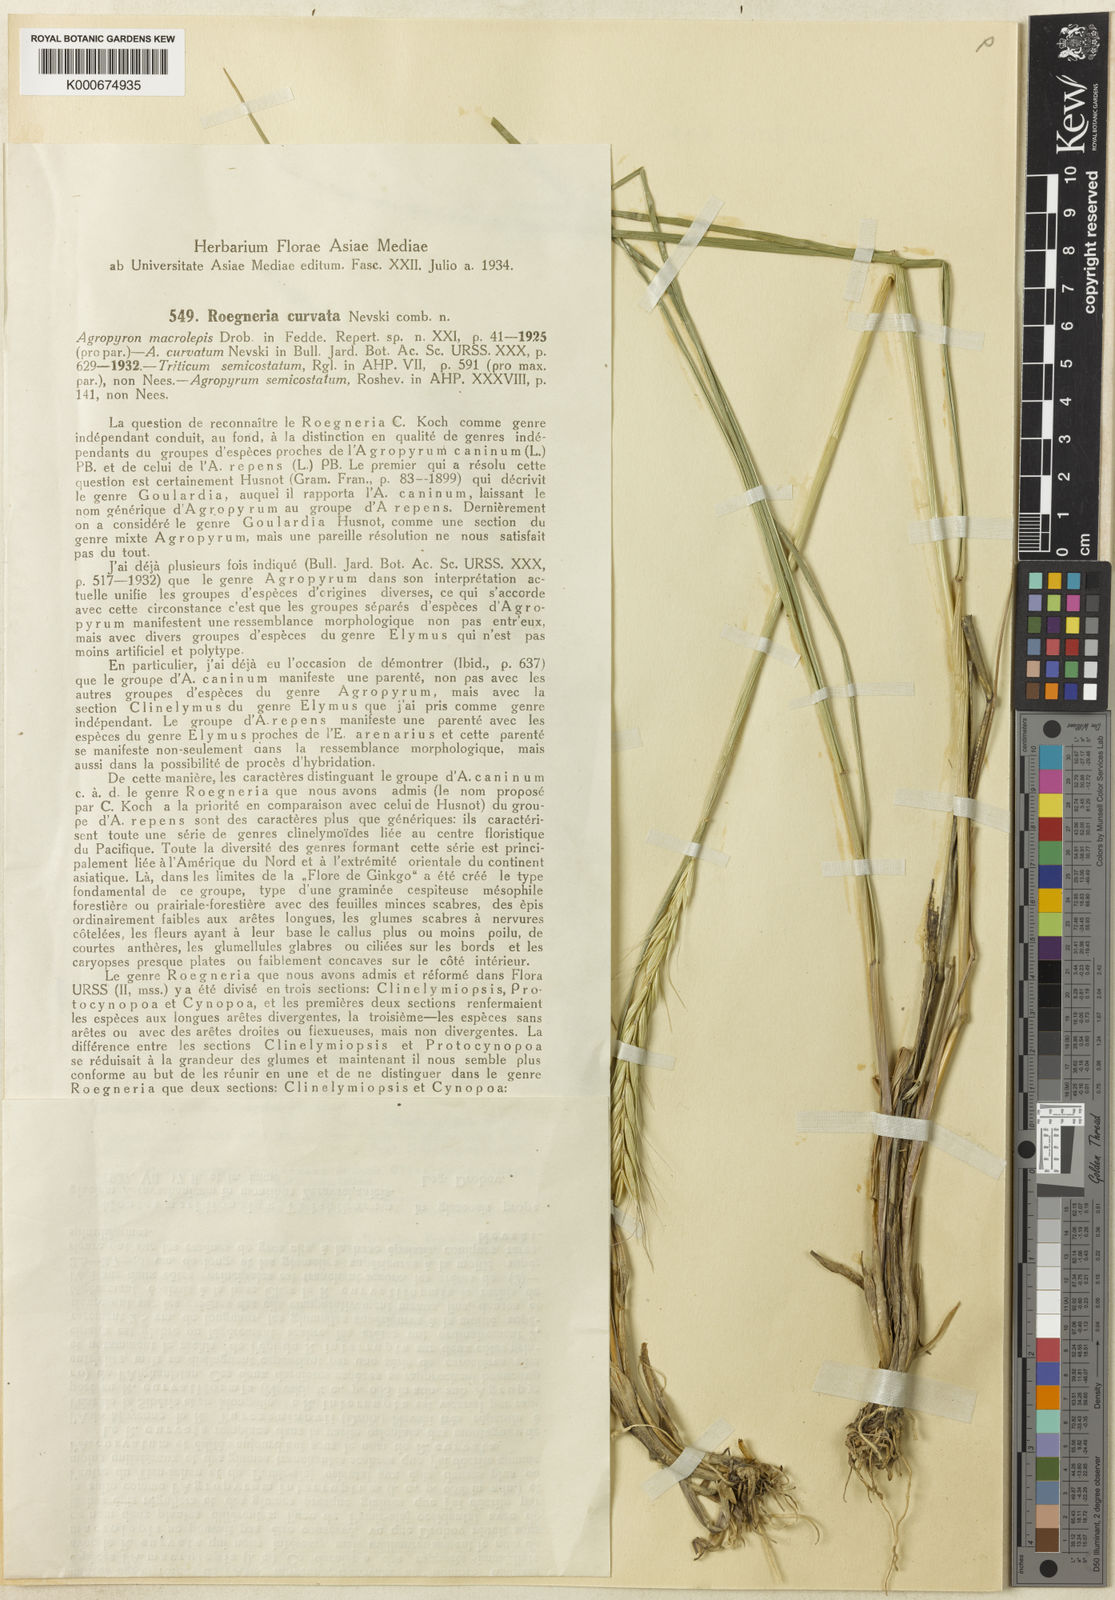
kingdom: Plantae
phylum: Tracheophyta
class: Liliopsida
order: Poales
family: Poaceae
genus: Elymus
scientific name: Elymus fedtschenkoi
